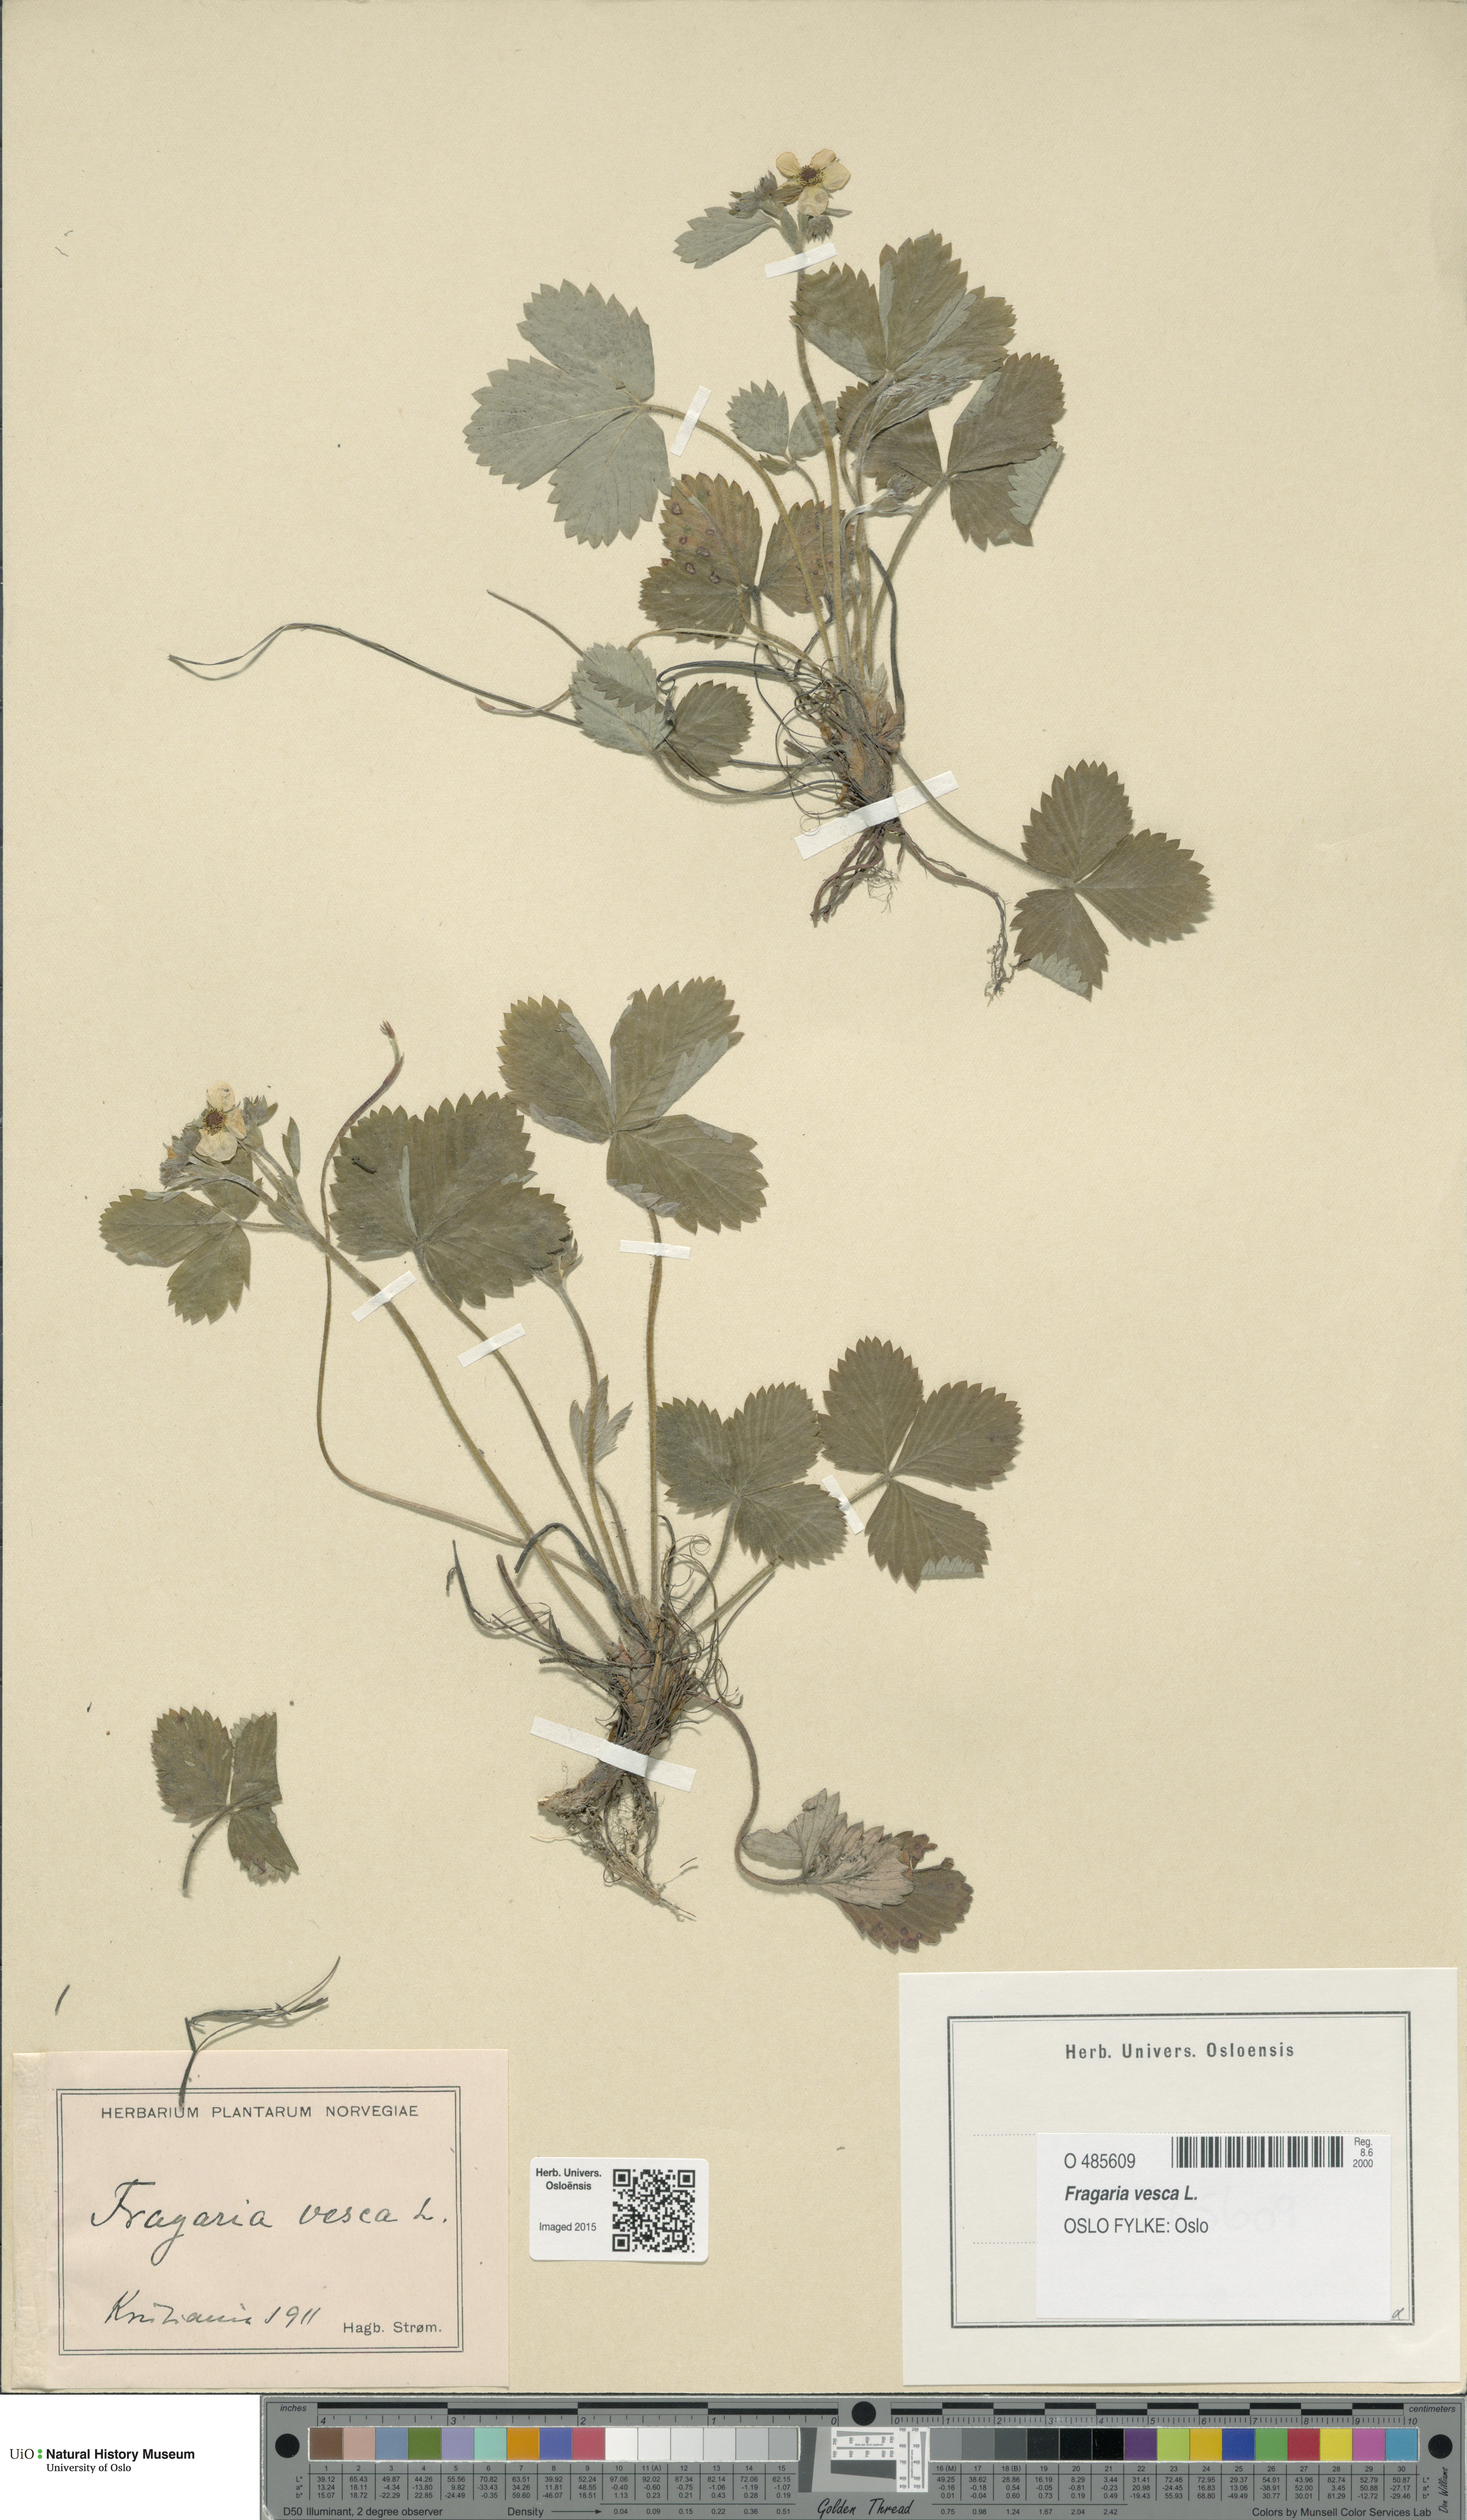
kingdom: Plantae
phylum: Tracheophyta
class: Magnoliopsida
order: Rosales
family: Rosaceae
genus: Fragaria
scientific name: Fragaria vesca
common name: Wild strawberry
